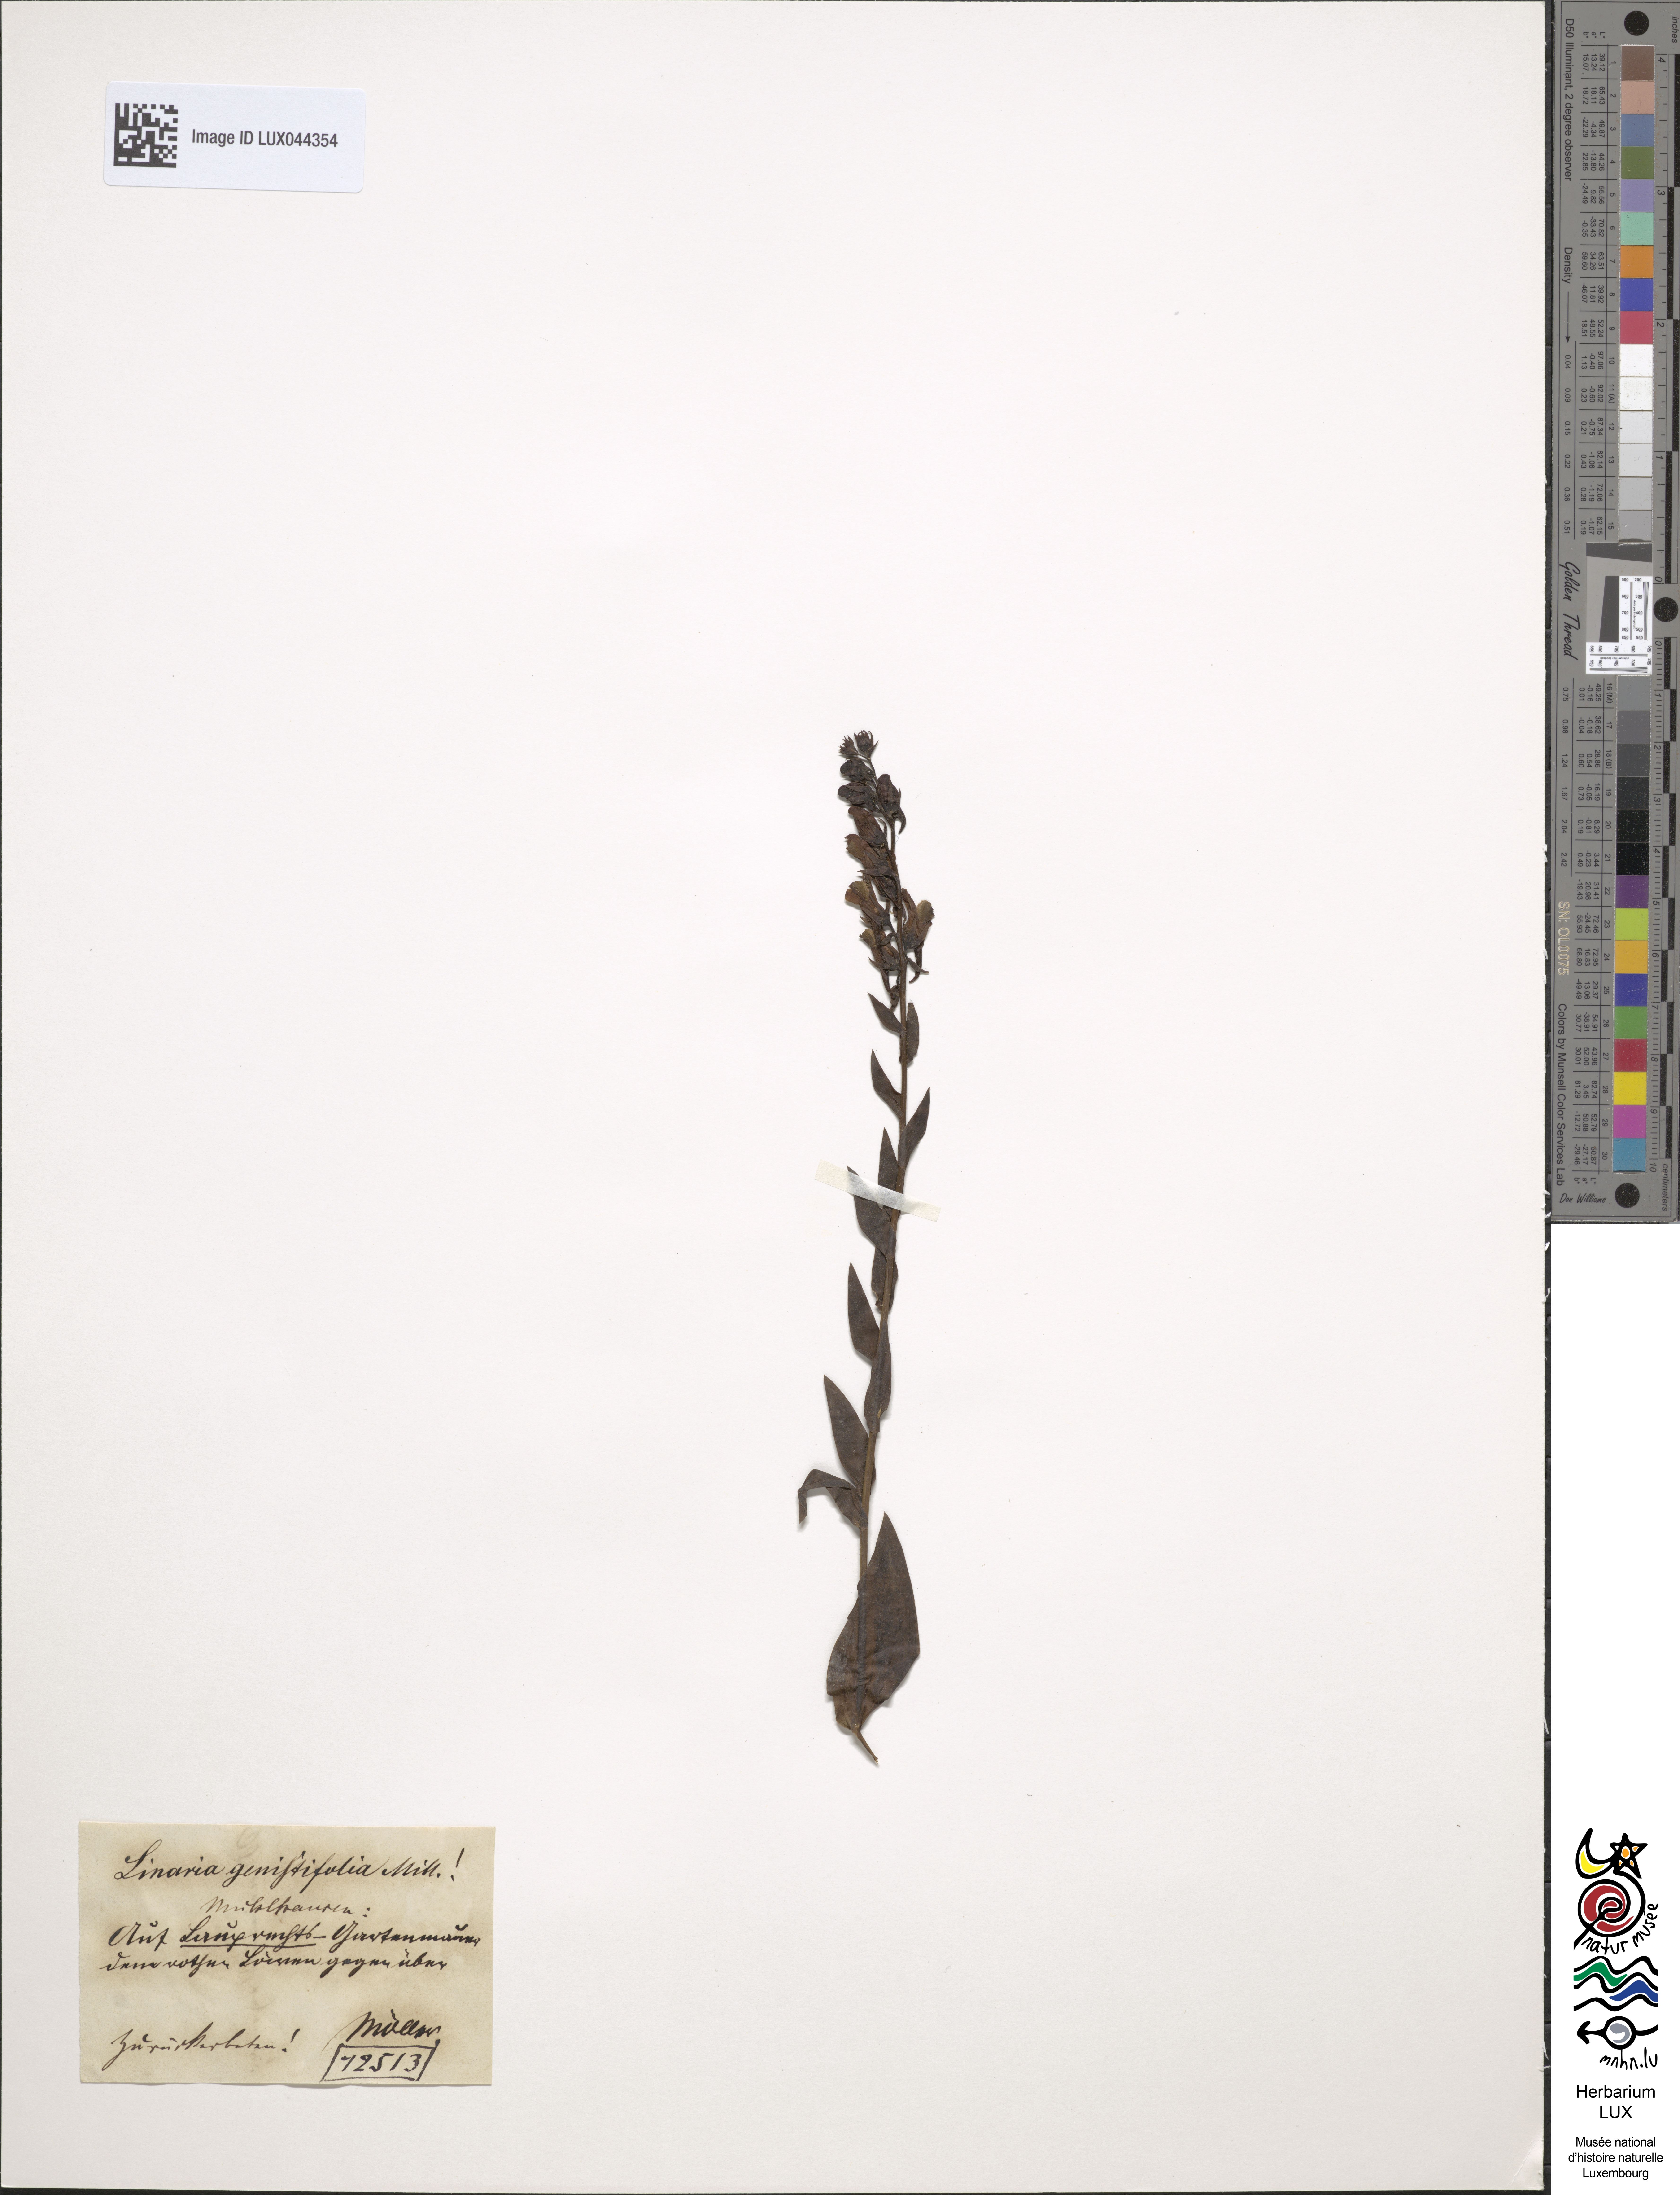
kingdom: Plantae
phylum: Tracheophyta
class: Magnoliopsida
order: Lamiales
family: Plantaginaceae
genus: Linaria
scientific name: Linaria genistifolia
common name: Broomleaf toadflax
